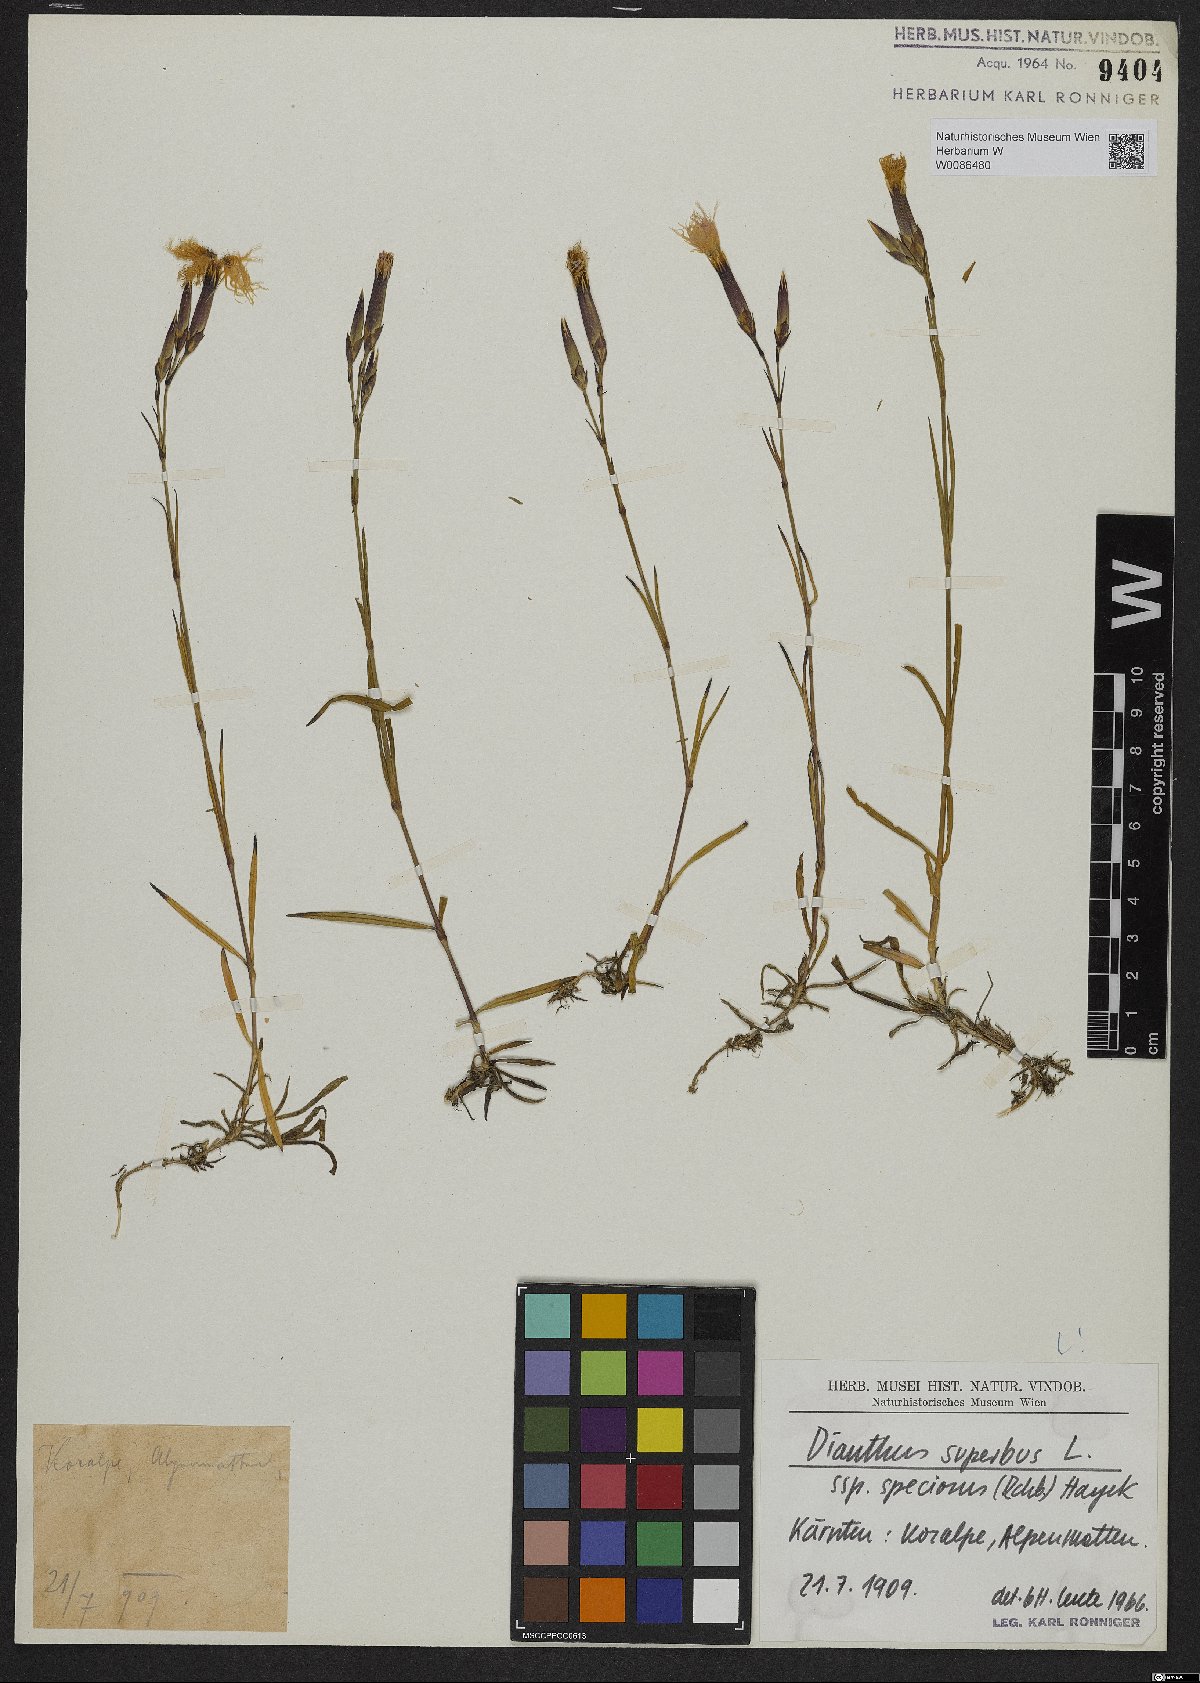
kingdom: Plantae
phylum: Tracheophyta
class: Magnoliopsida
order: Caryophyllales
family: Caryophyllaceae
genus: Dianthus
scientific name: Dianthus superbus
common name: Fringed pink
